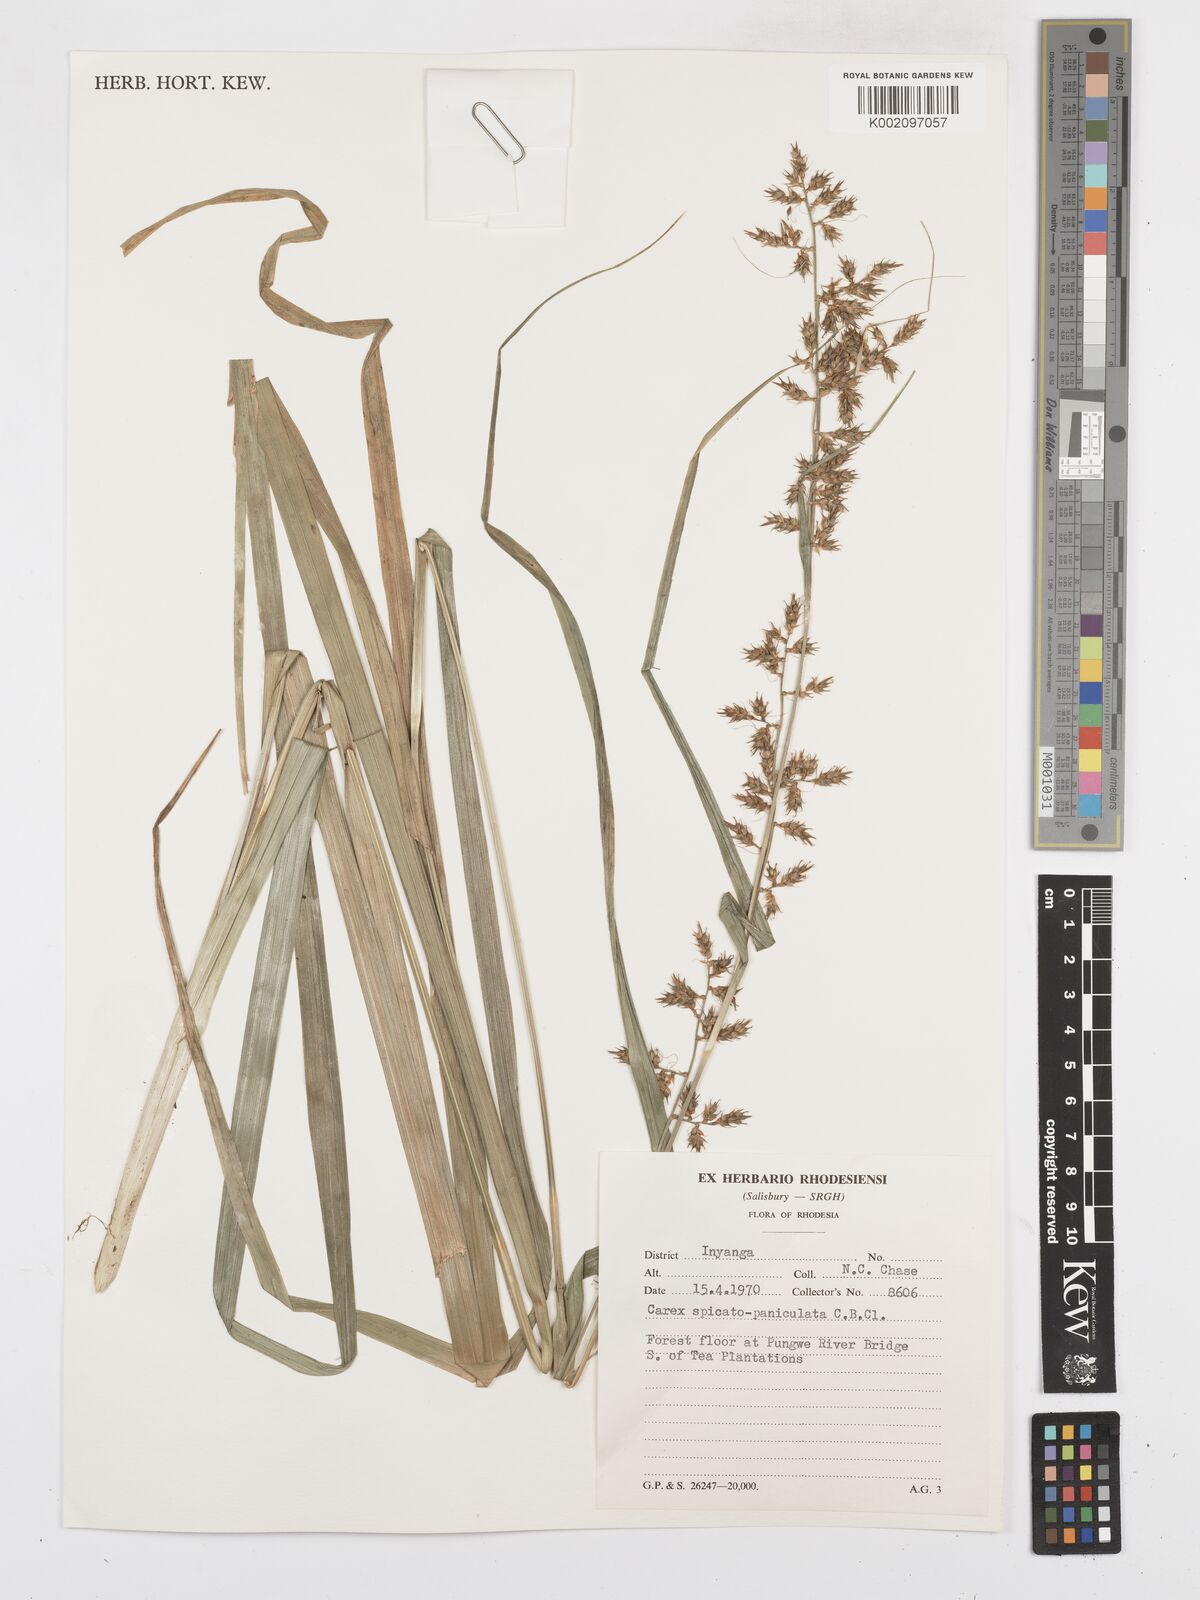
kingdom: Plantae
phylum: Tracheophyta
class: Liliopsida
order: Poales
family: Cyperaceae
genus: Carex
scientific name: Carex spicatopaniculata
